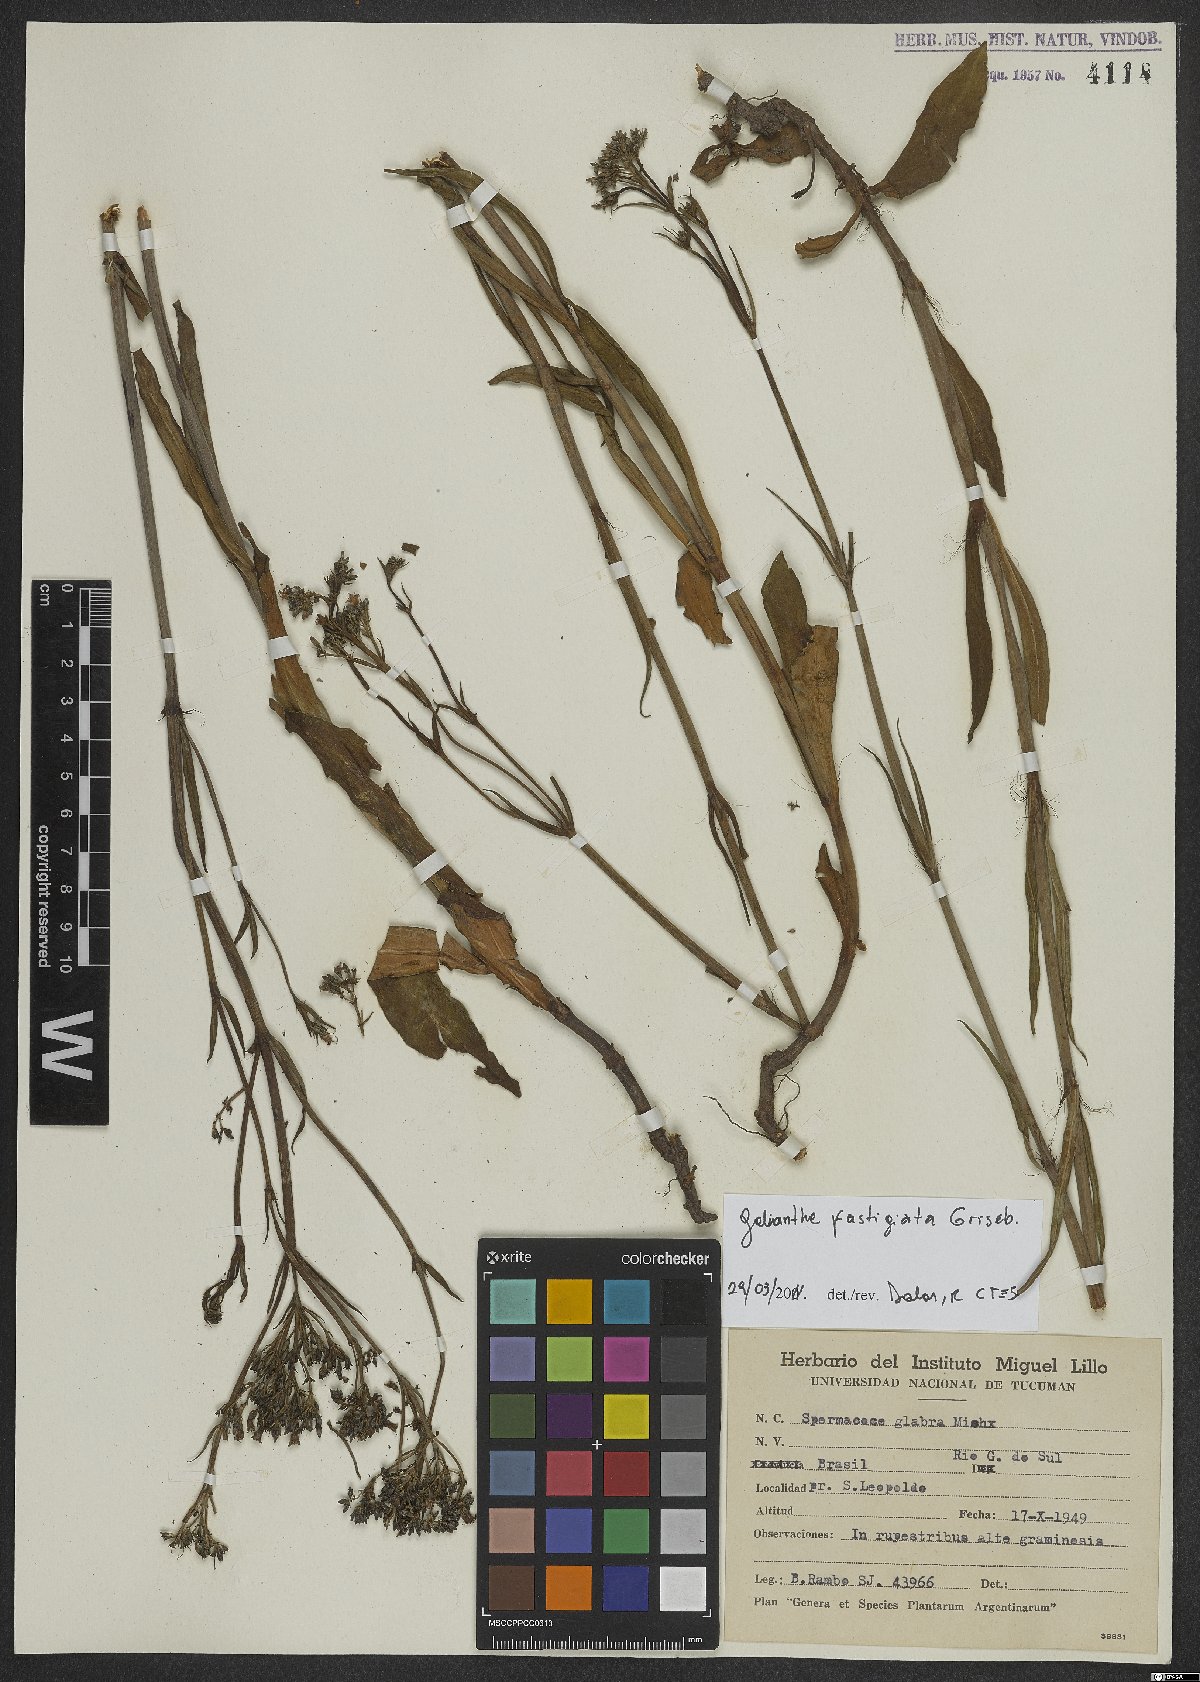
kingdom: Plantae
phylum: Tracheophyta
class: Magnoliopsida
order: Gentianales
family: Rubiaceae
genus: Galianthe
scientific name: Galianthe fastigiata
